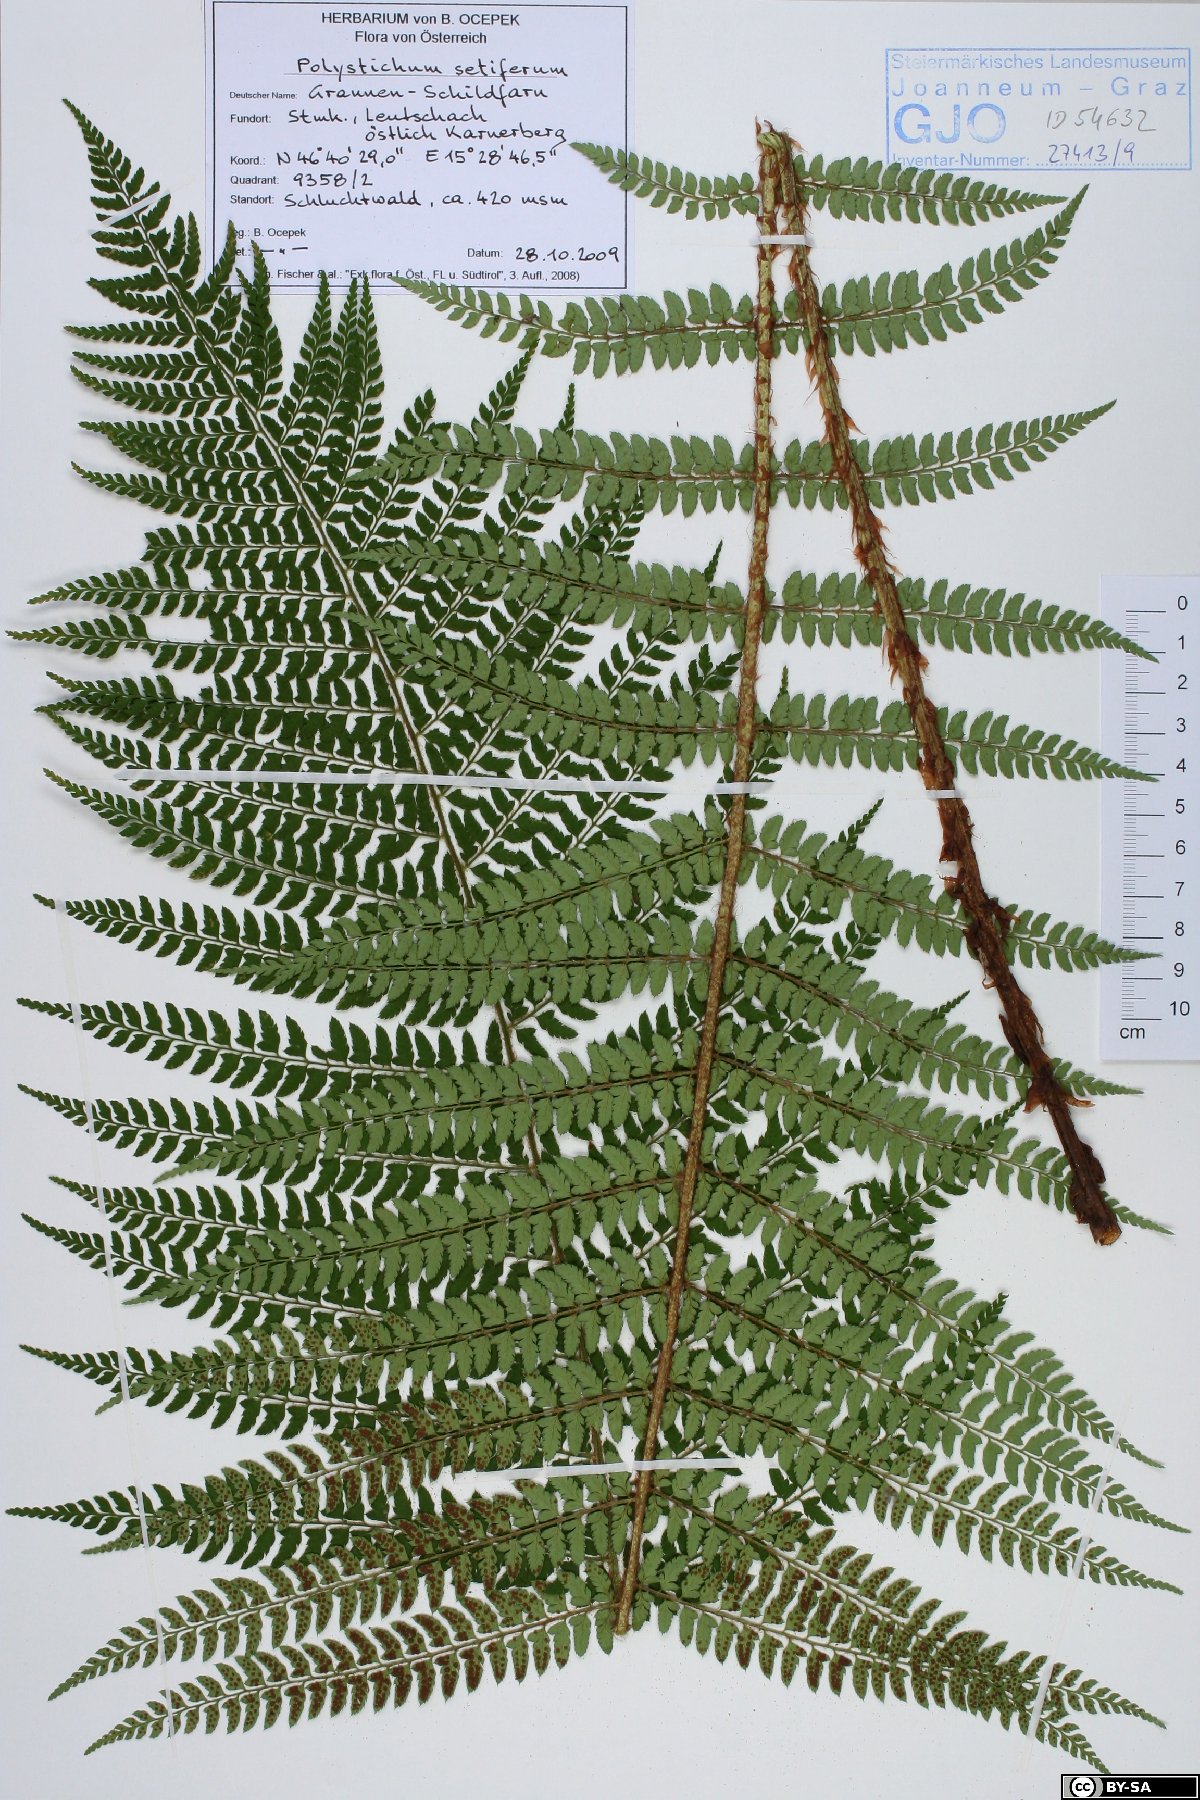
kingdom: Plantae
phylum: Tracheophyta
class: Polypodiopsida
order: Polypodiales
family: Dryopteridaceae
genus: Polystichum
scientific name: Polystichum setiferum
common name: Soft shield-fern
